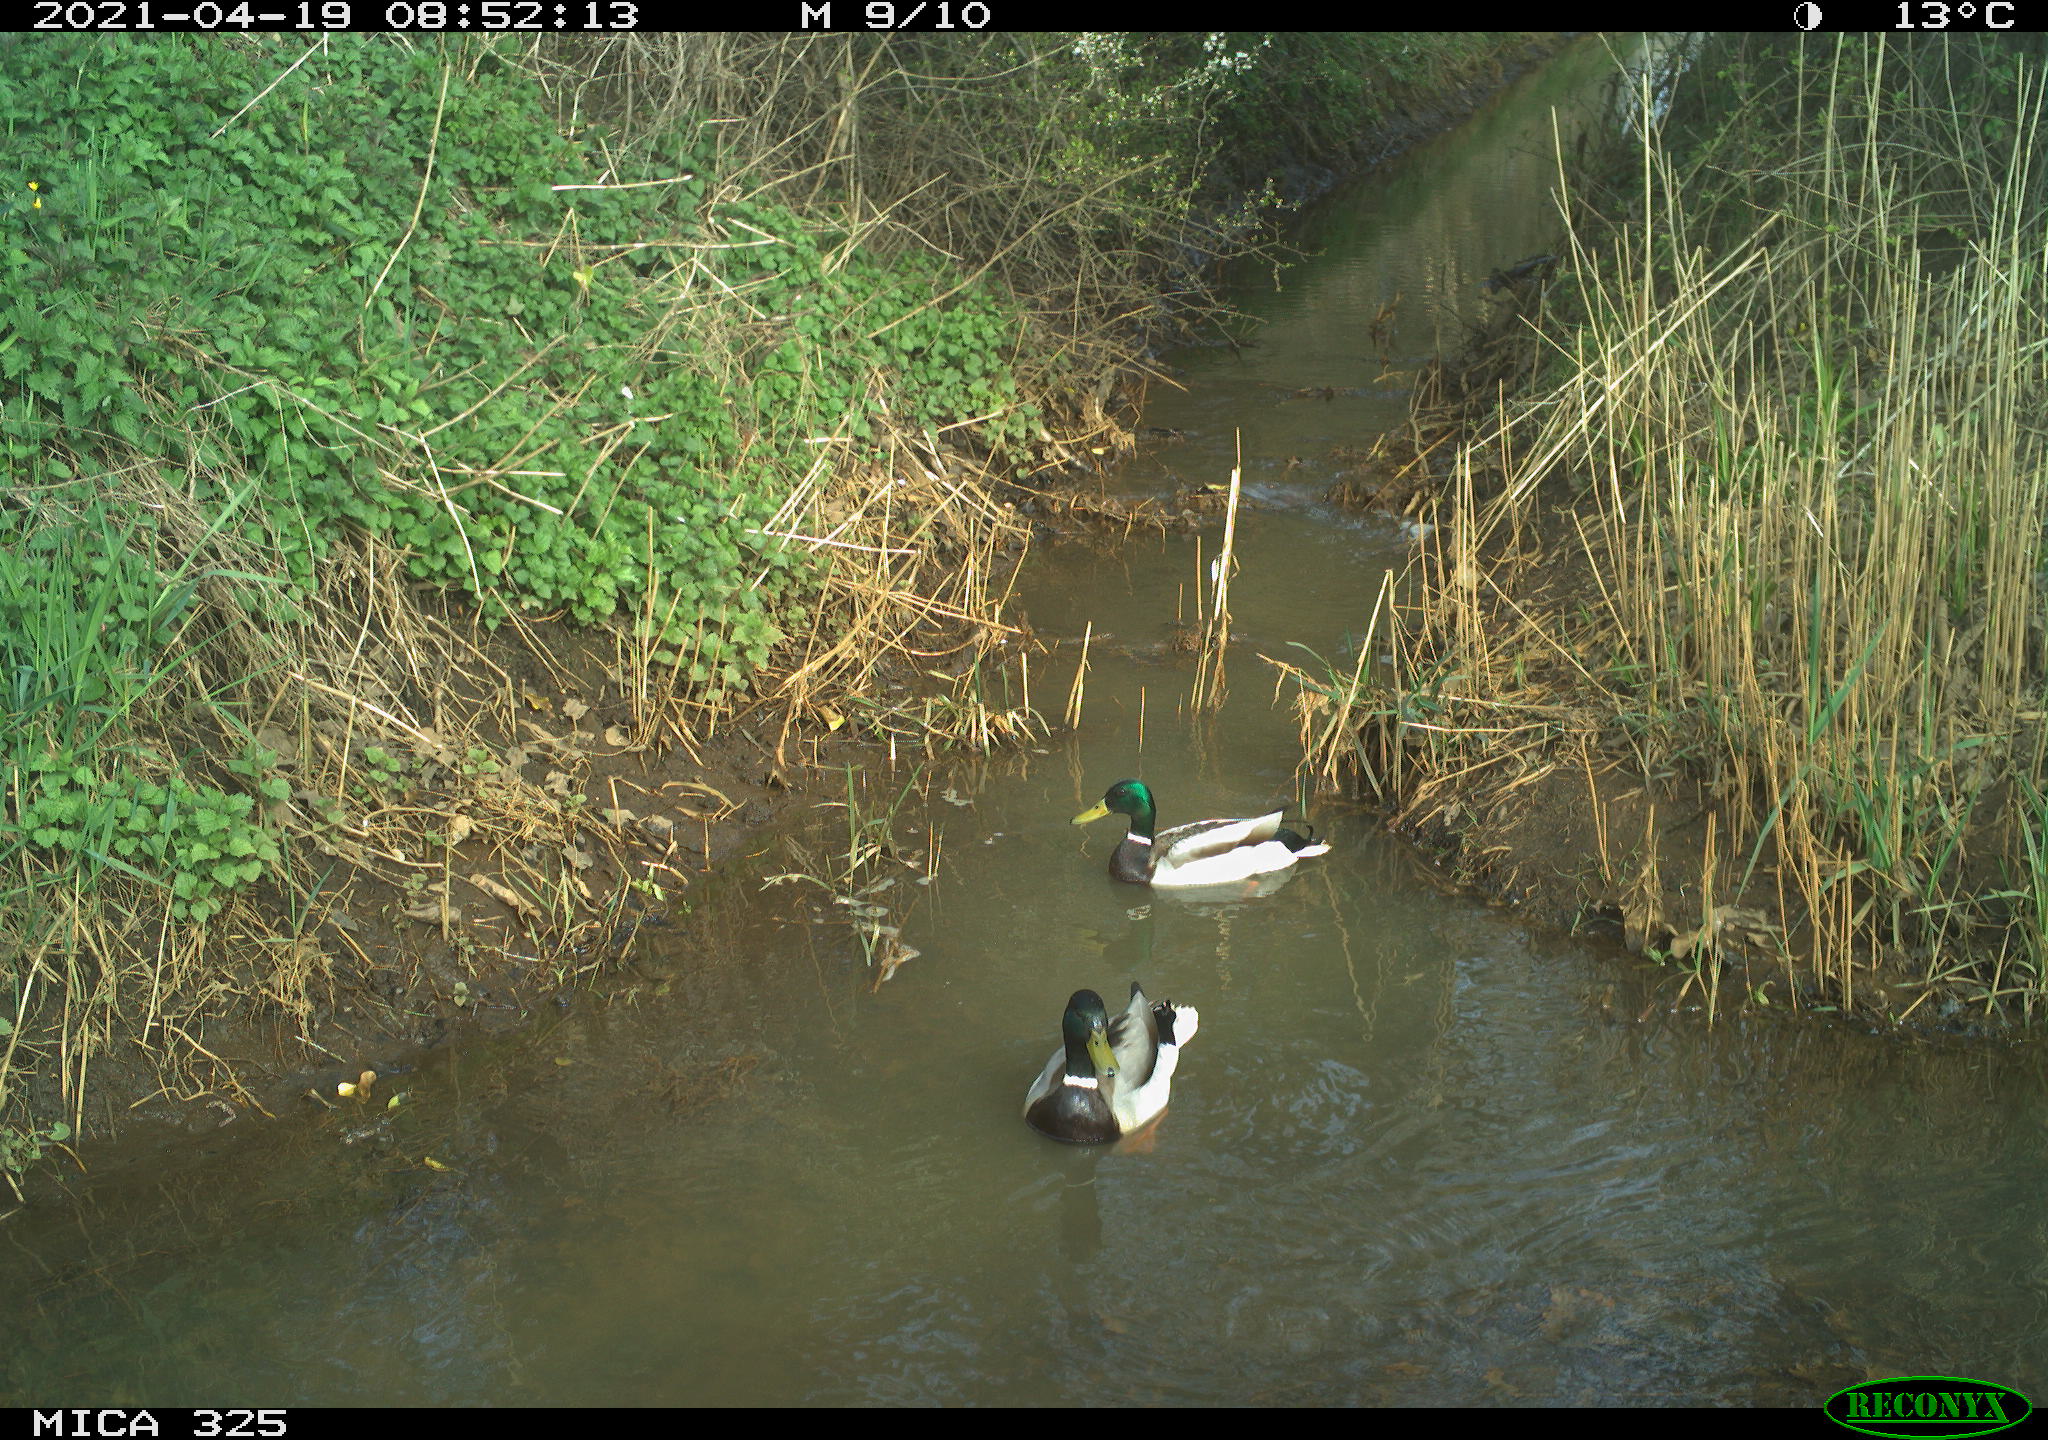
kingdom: Animalia
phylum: Chordata
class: Aves
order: Anseriformes
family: Anatidae
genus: Anas
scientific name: Anas platyrhynchos
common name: Mallard
